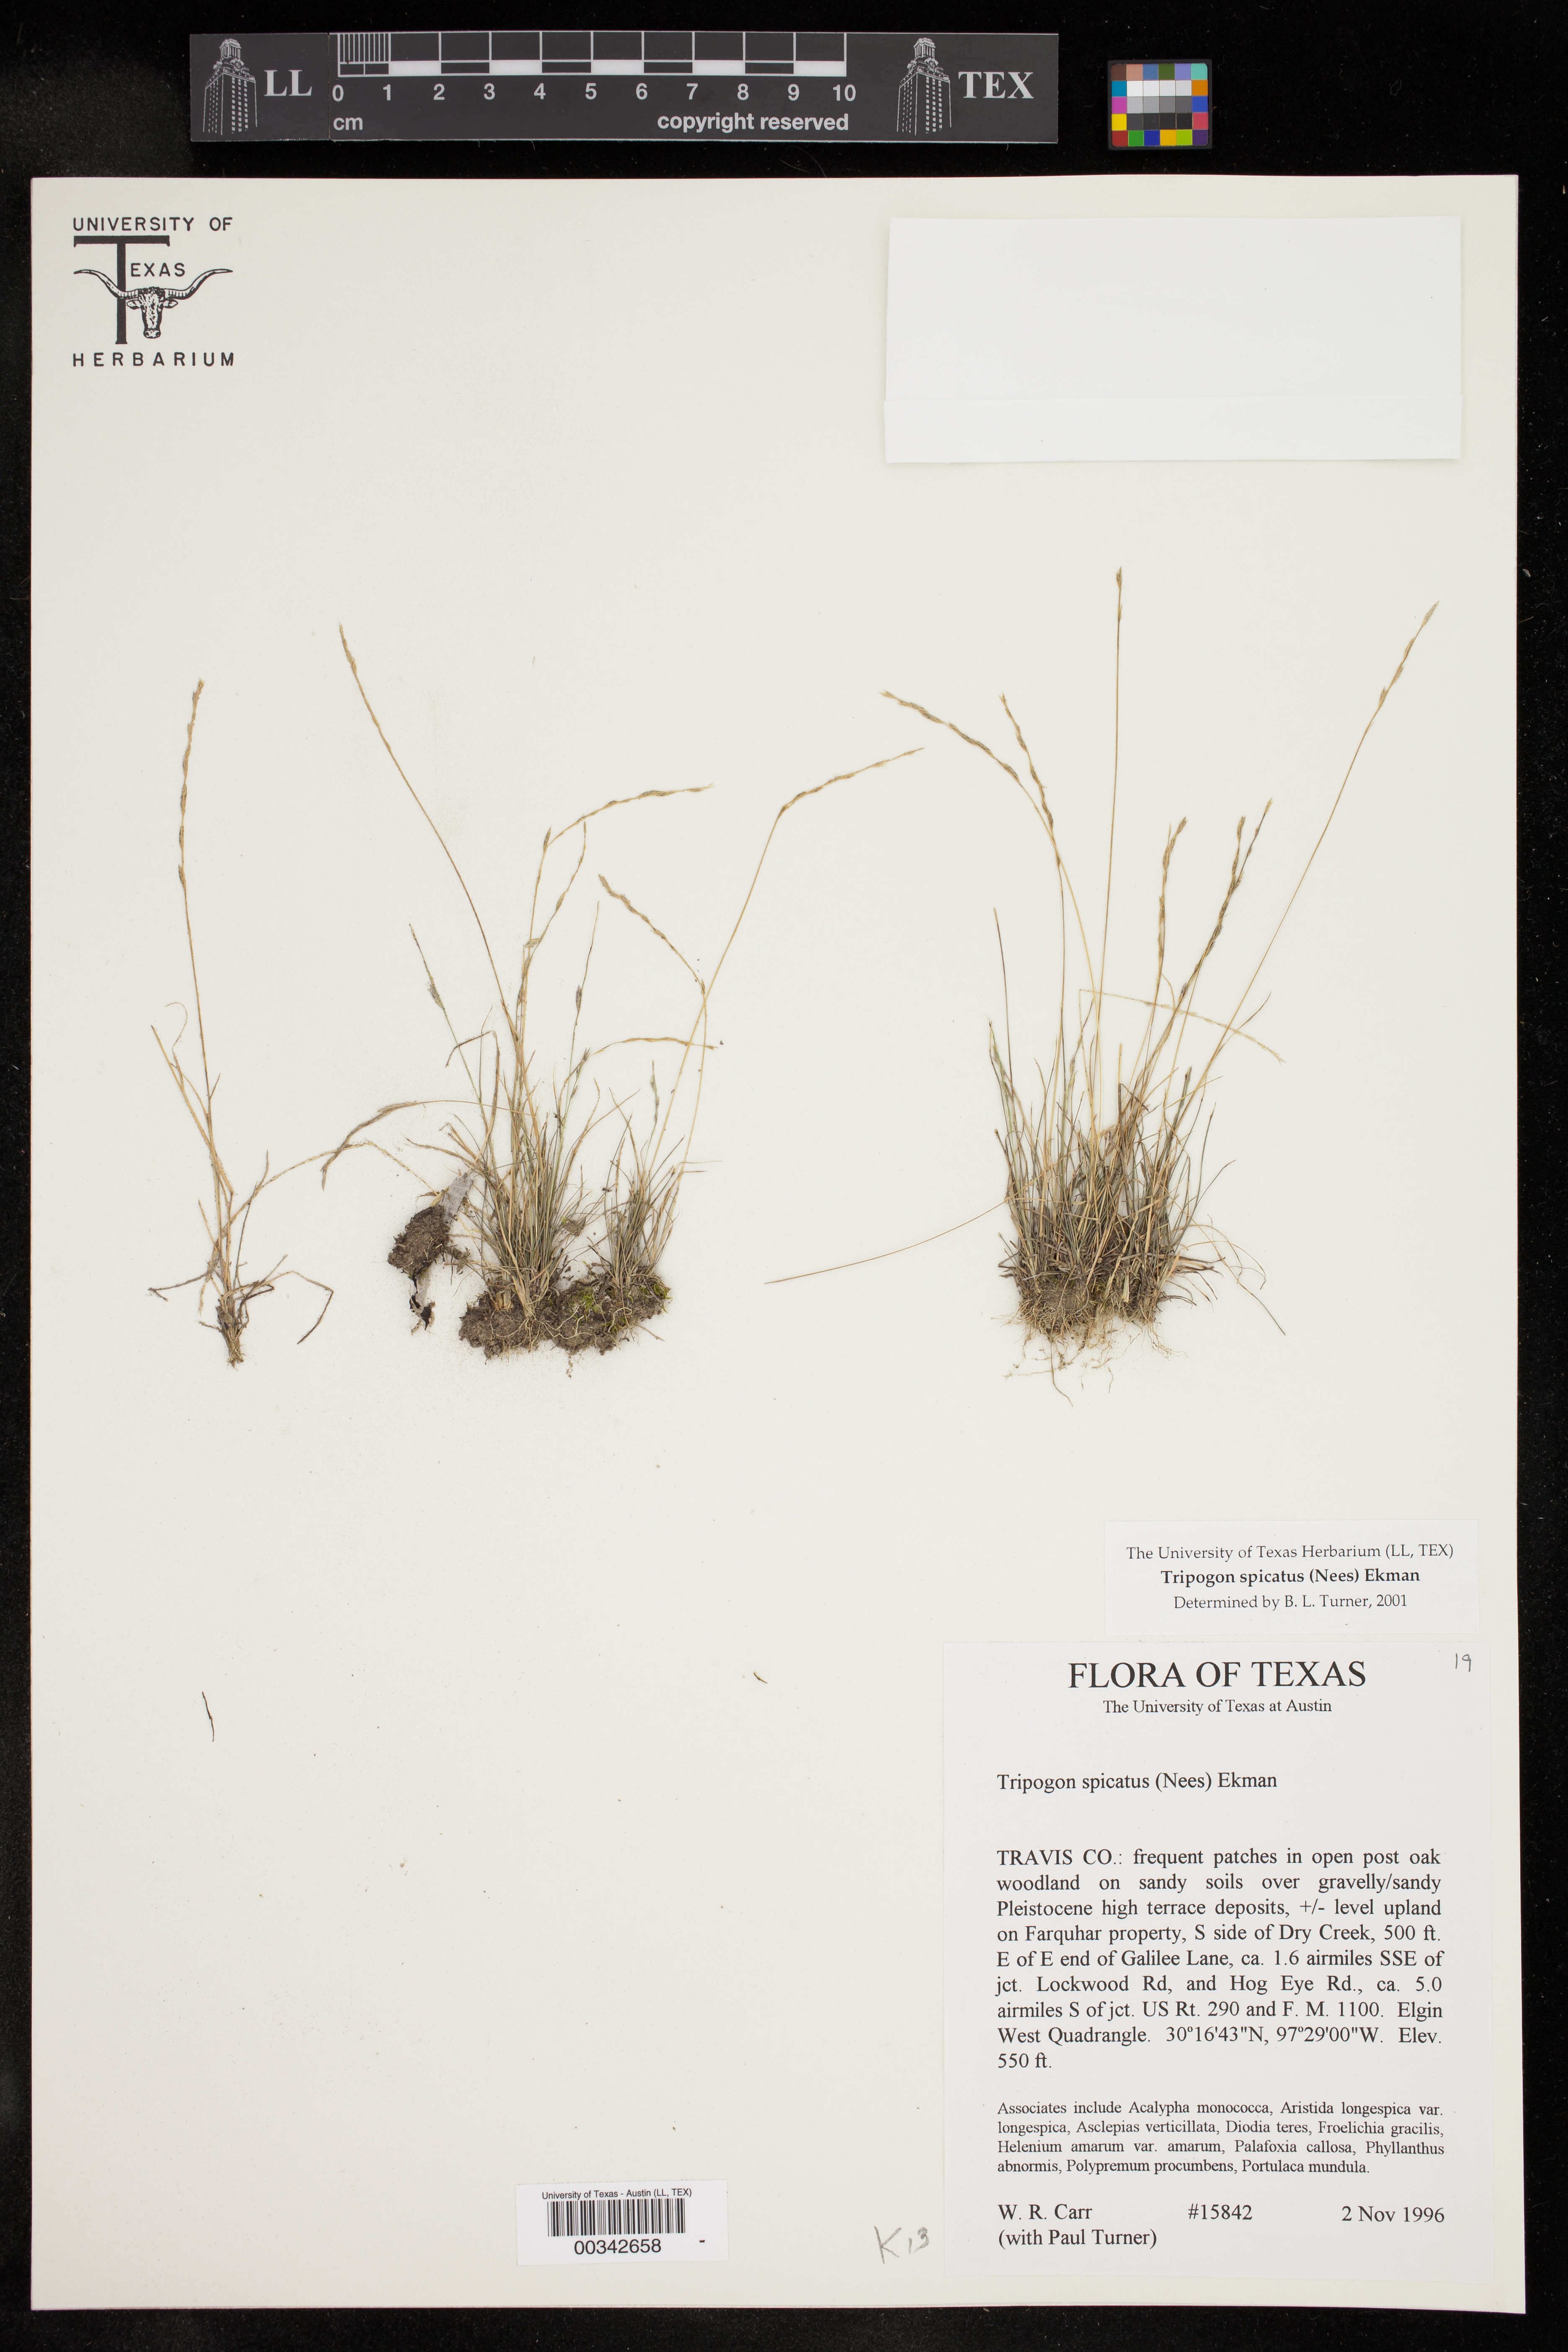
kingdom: Plantae
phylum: Tracheophyta
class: Liliopsida
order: Poales
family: Poaceae
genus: Tripogonella
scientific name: Tripogonella spicata
